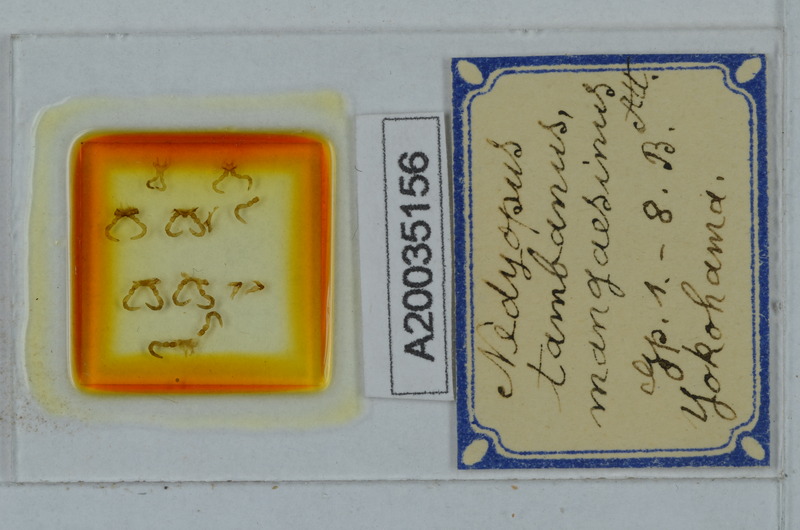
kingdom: Animalia
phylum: Arthropoda
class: Diplopoda
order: Polydesmida
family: Paradoxosomatidae
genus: Nedyopus
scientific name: Nedyopus tambanus
